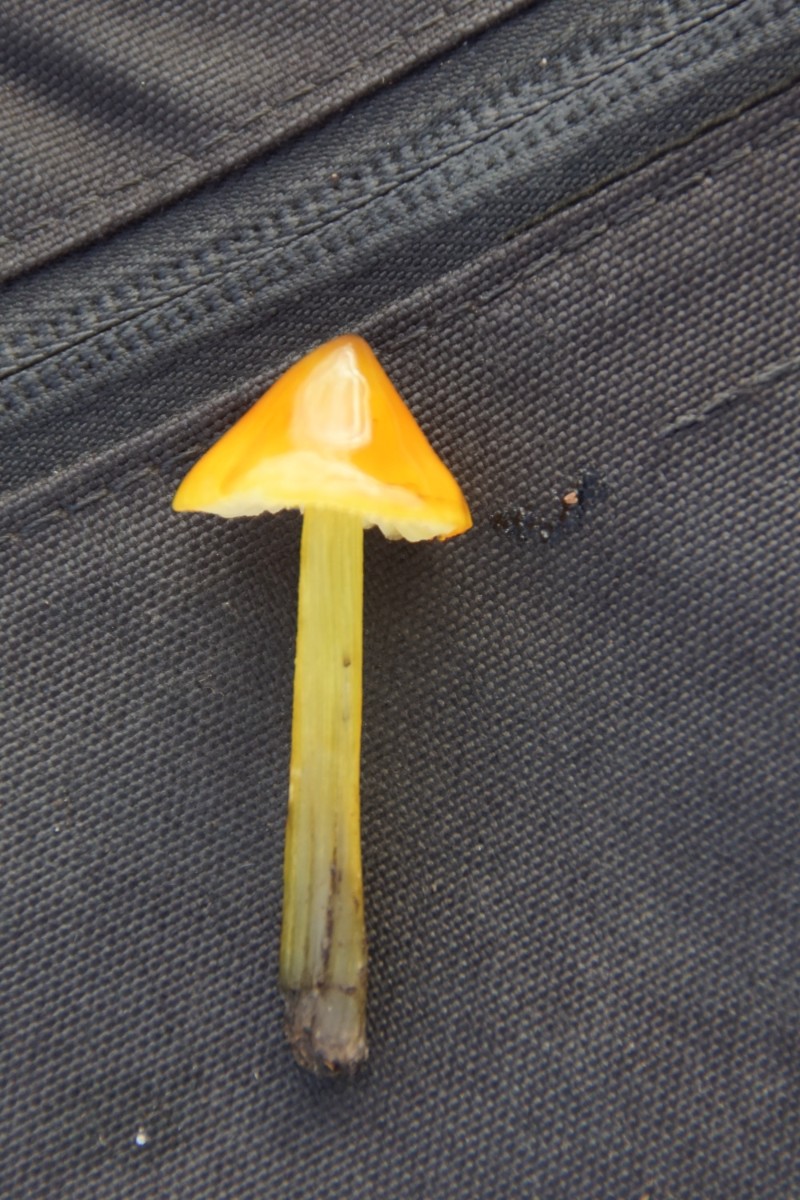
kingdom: Fungi
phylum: Basidiomycota
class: Agaricomycetes
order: Agaricales
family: Hygrophoraceae
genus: Hygrocybe
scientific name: Hygrocybe conica
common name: kegle-vokshat
